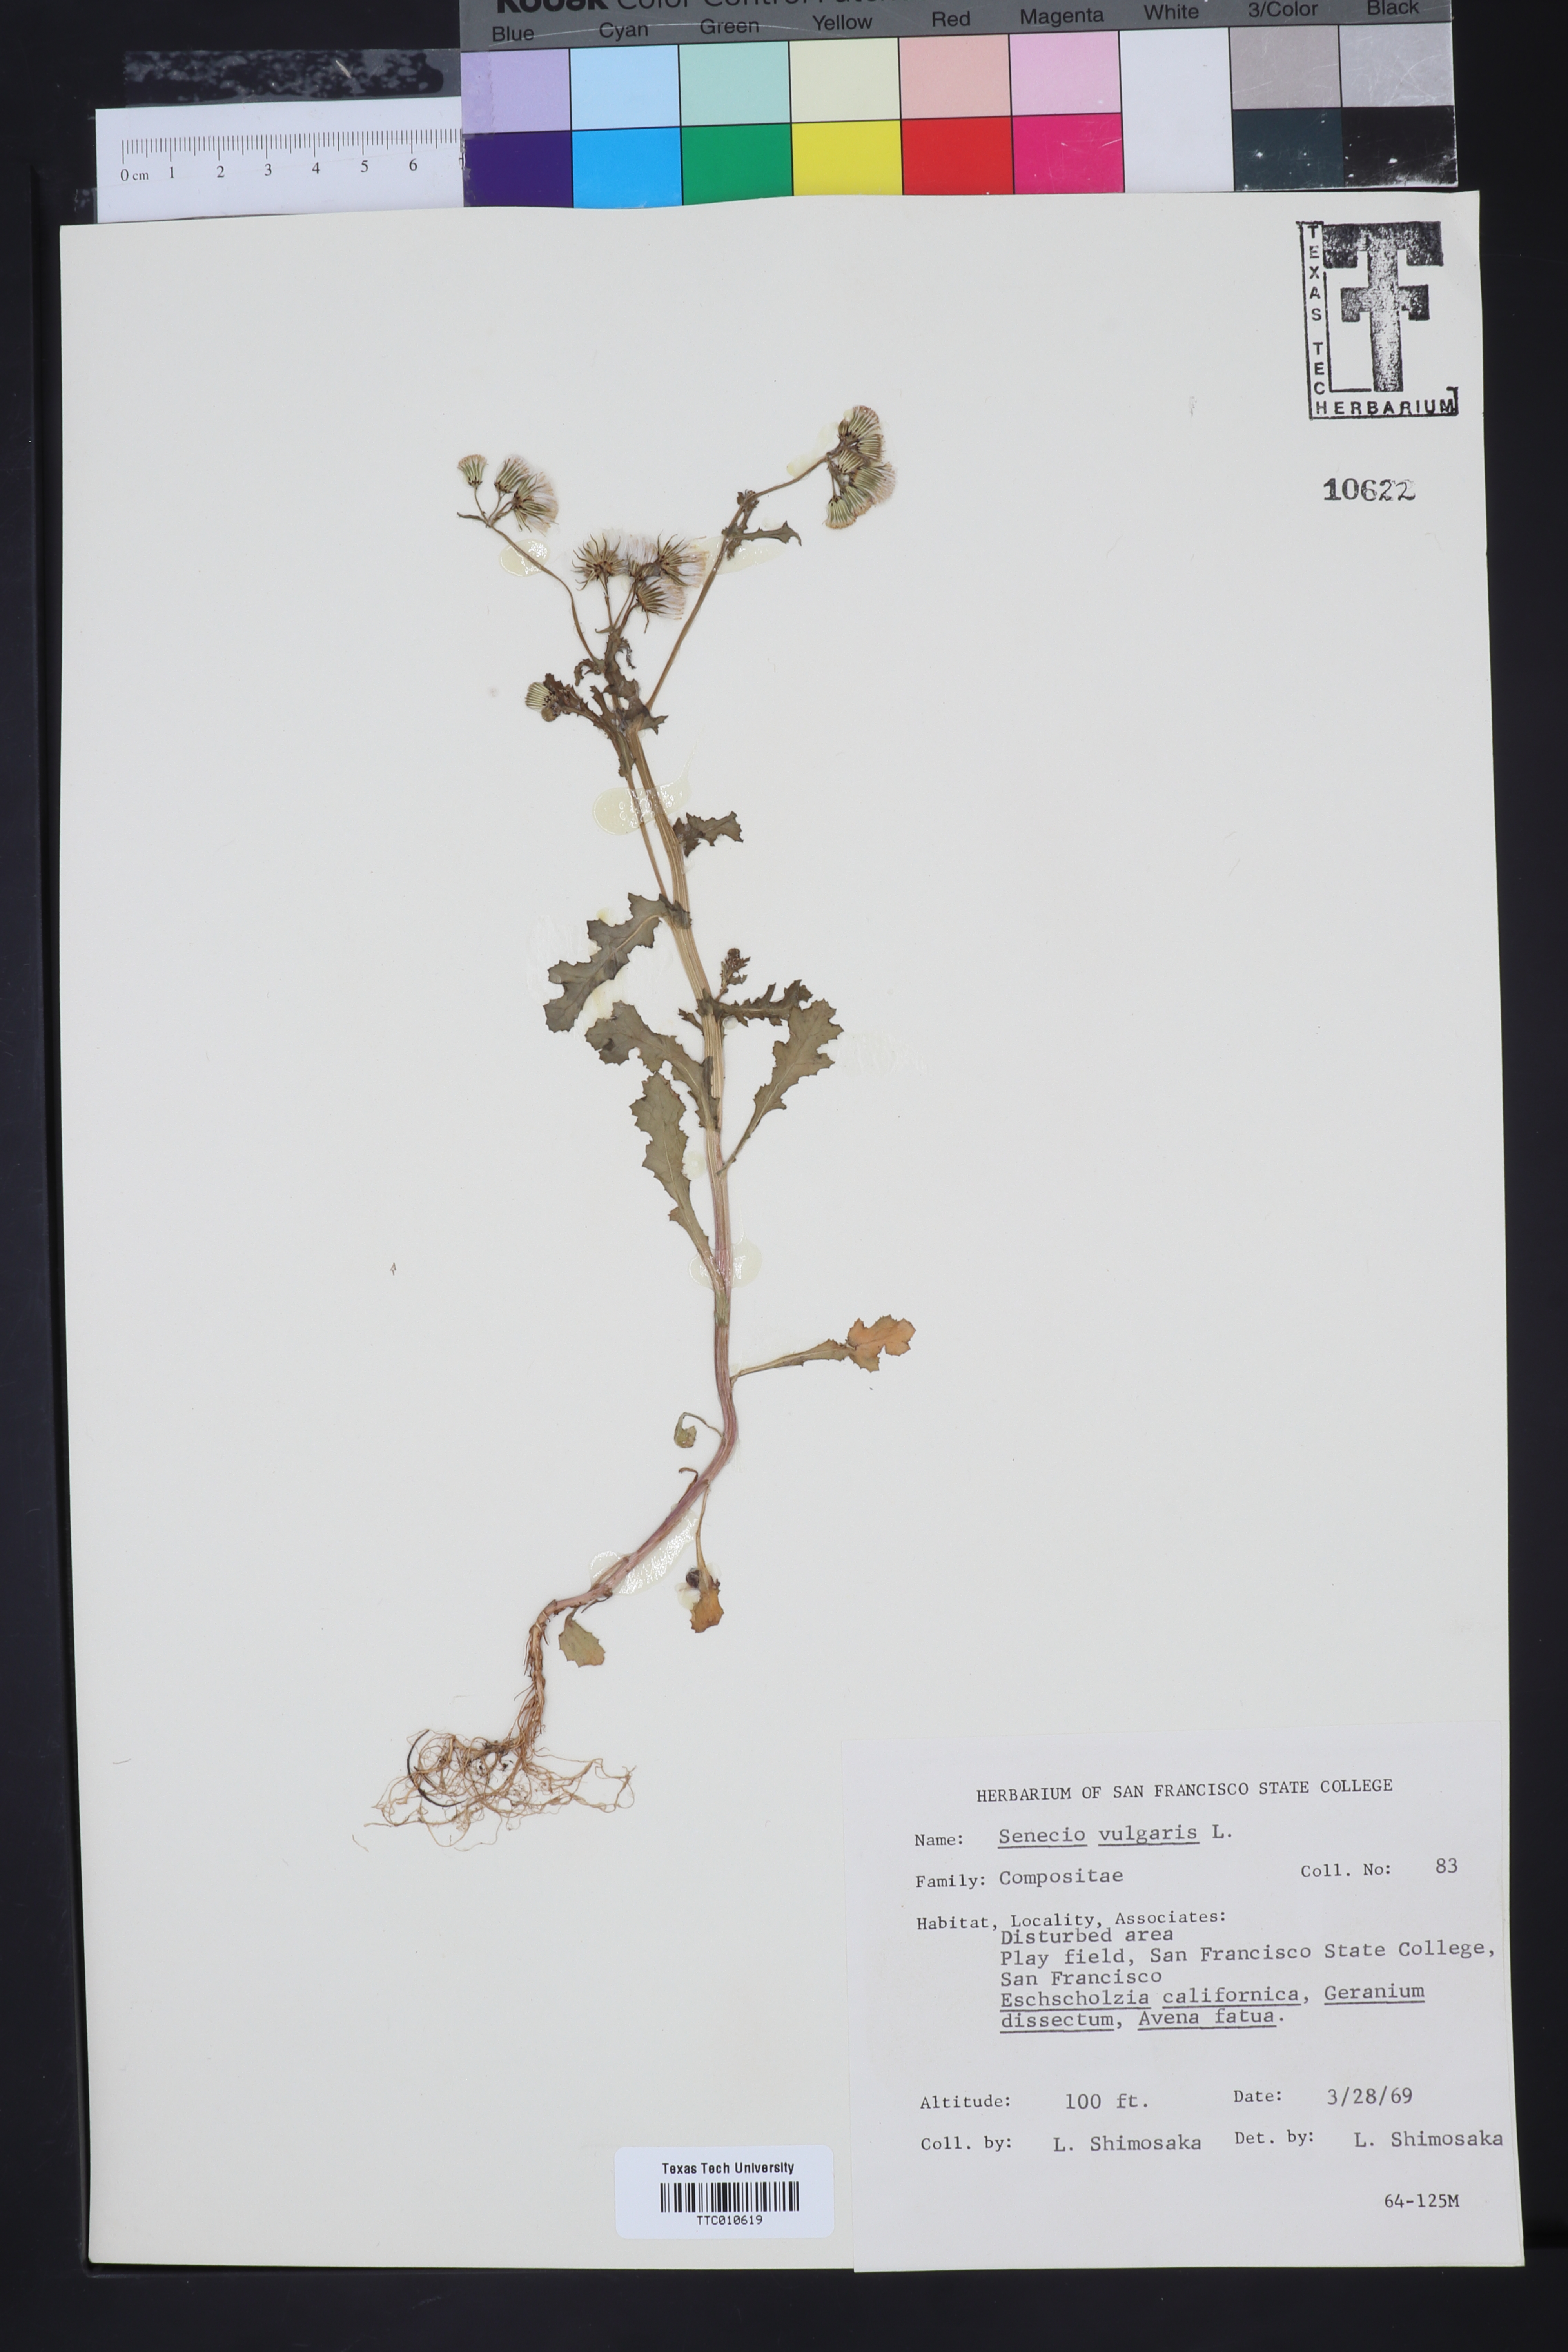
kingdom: Plantae
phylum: Tracheophyta
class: Magnoliopsida
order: Asterales
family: Asteraceae
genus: Senecio
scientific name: Senecio vulgaris
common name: Old-man-in-the-spring
